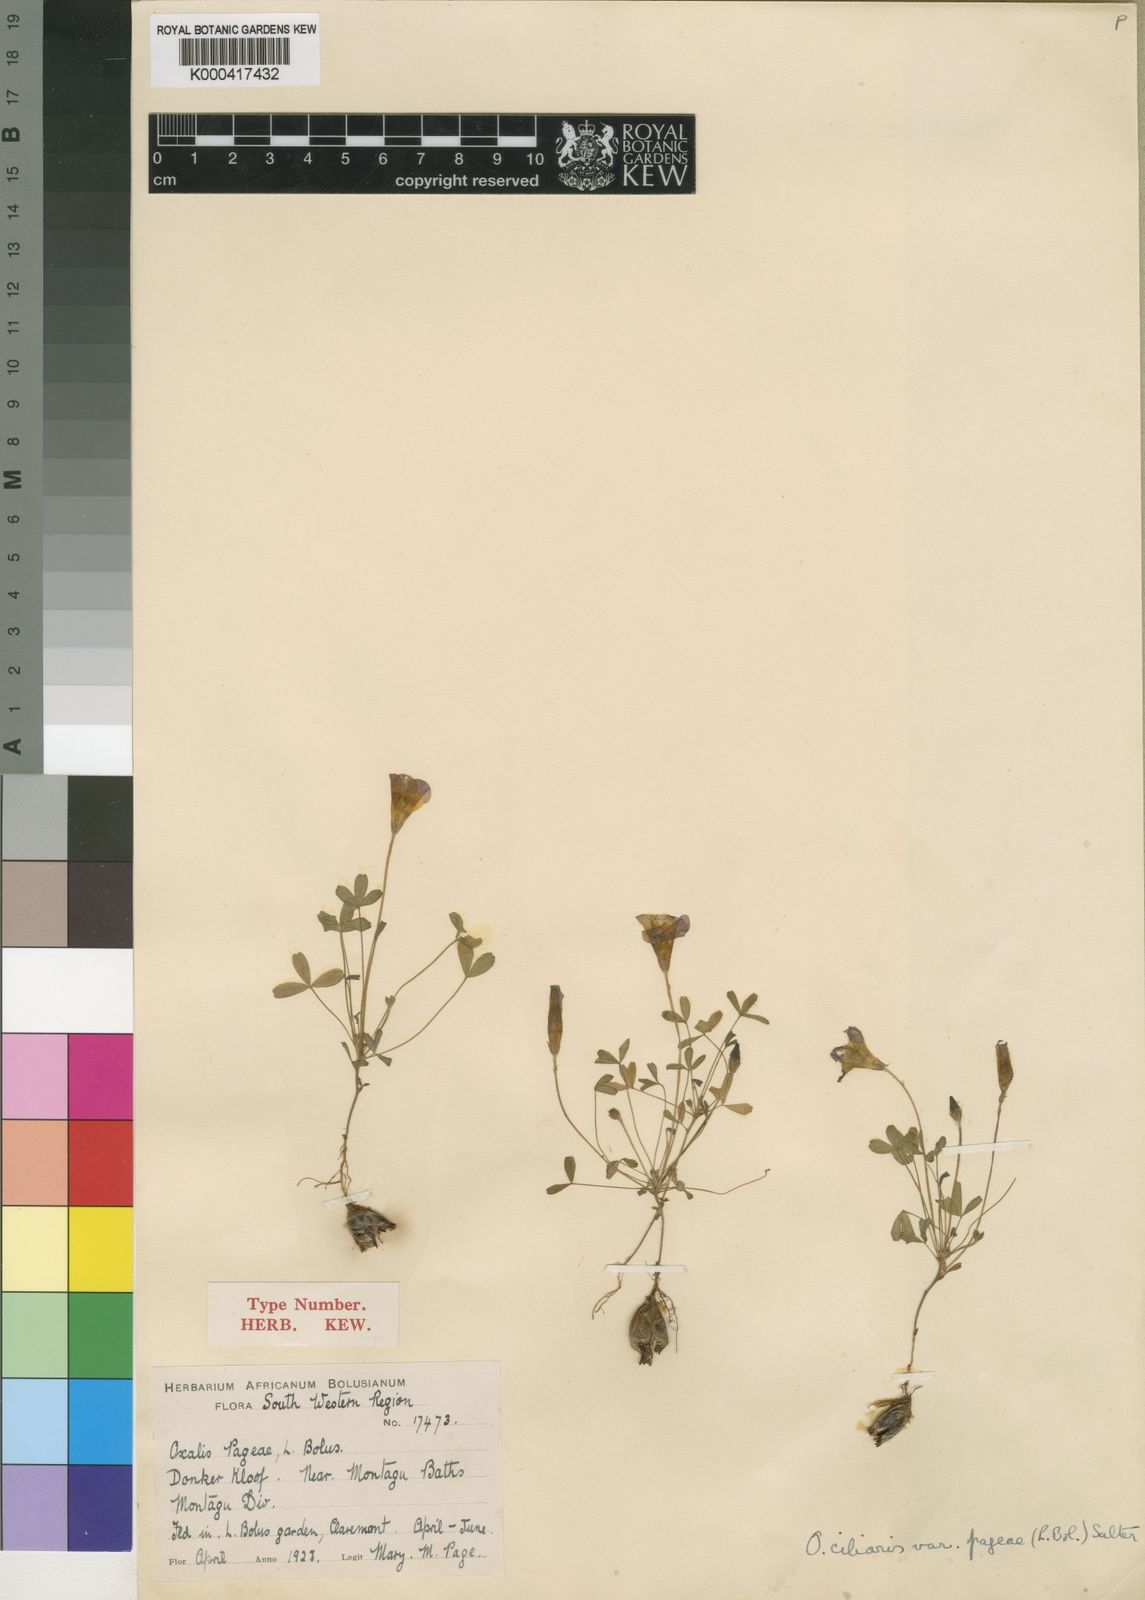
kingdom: Plantae
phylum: Tracheophyta
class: Magnoliopsida
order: Oxalidales
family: Oxalidaceae
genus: Oxalis
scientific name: Oxalis ciliaris
